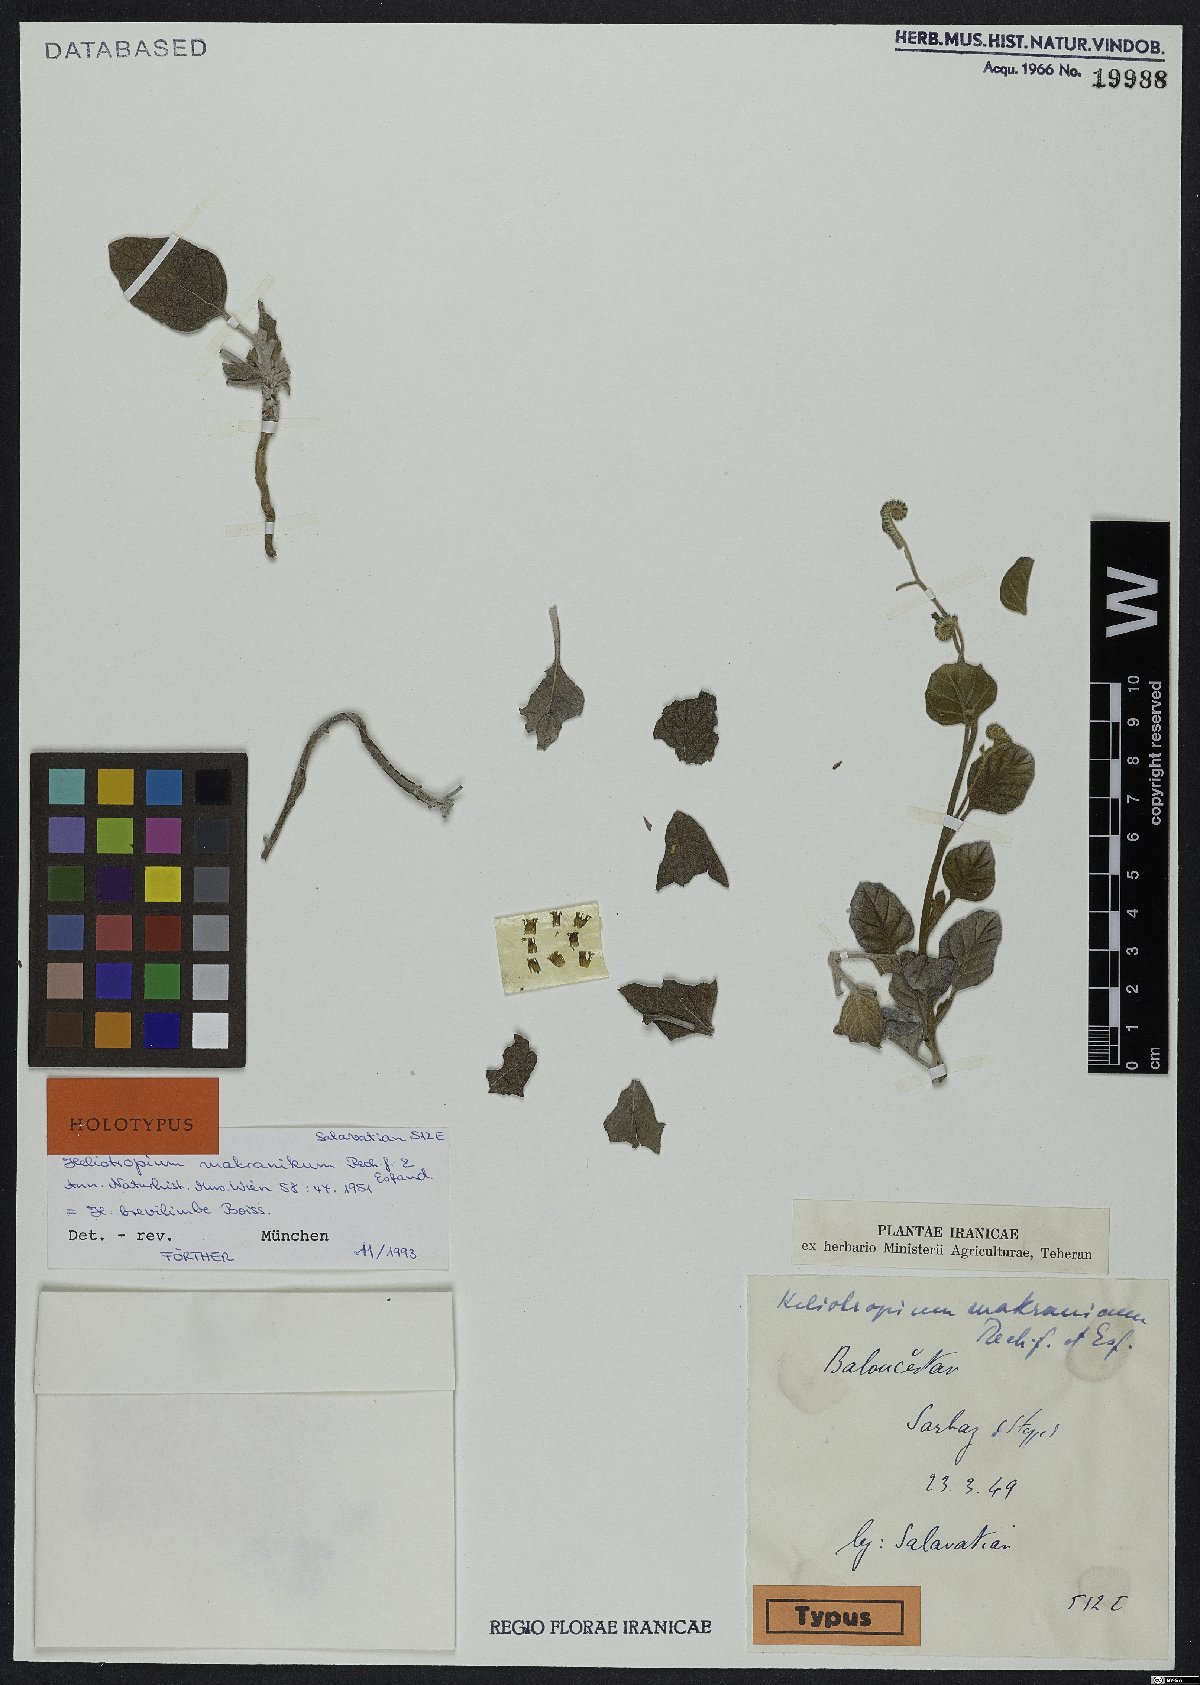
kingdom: Plantae
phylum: Tracheophyta
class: Magnoliopsida
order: Boraginales
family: Heliotropiaceae
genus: Heliotropium
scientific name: Heliotropium brevilimbe
